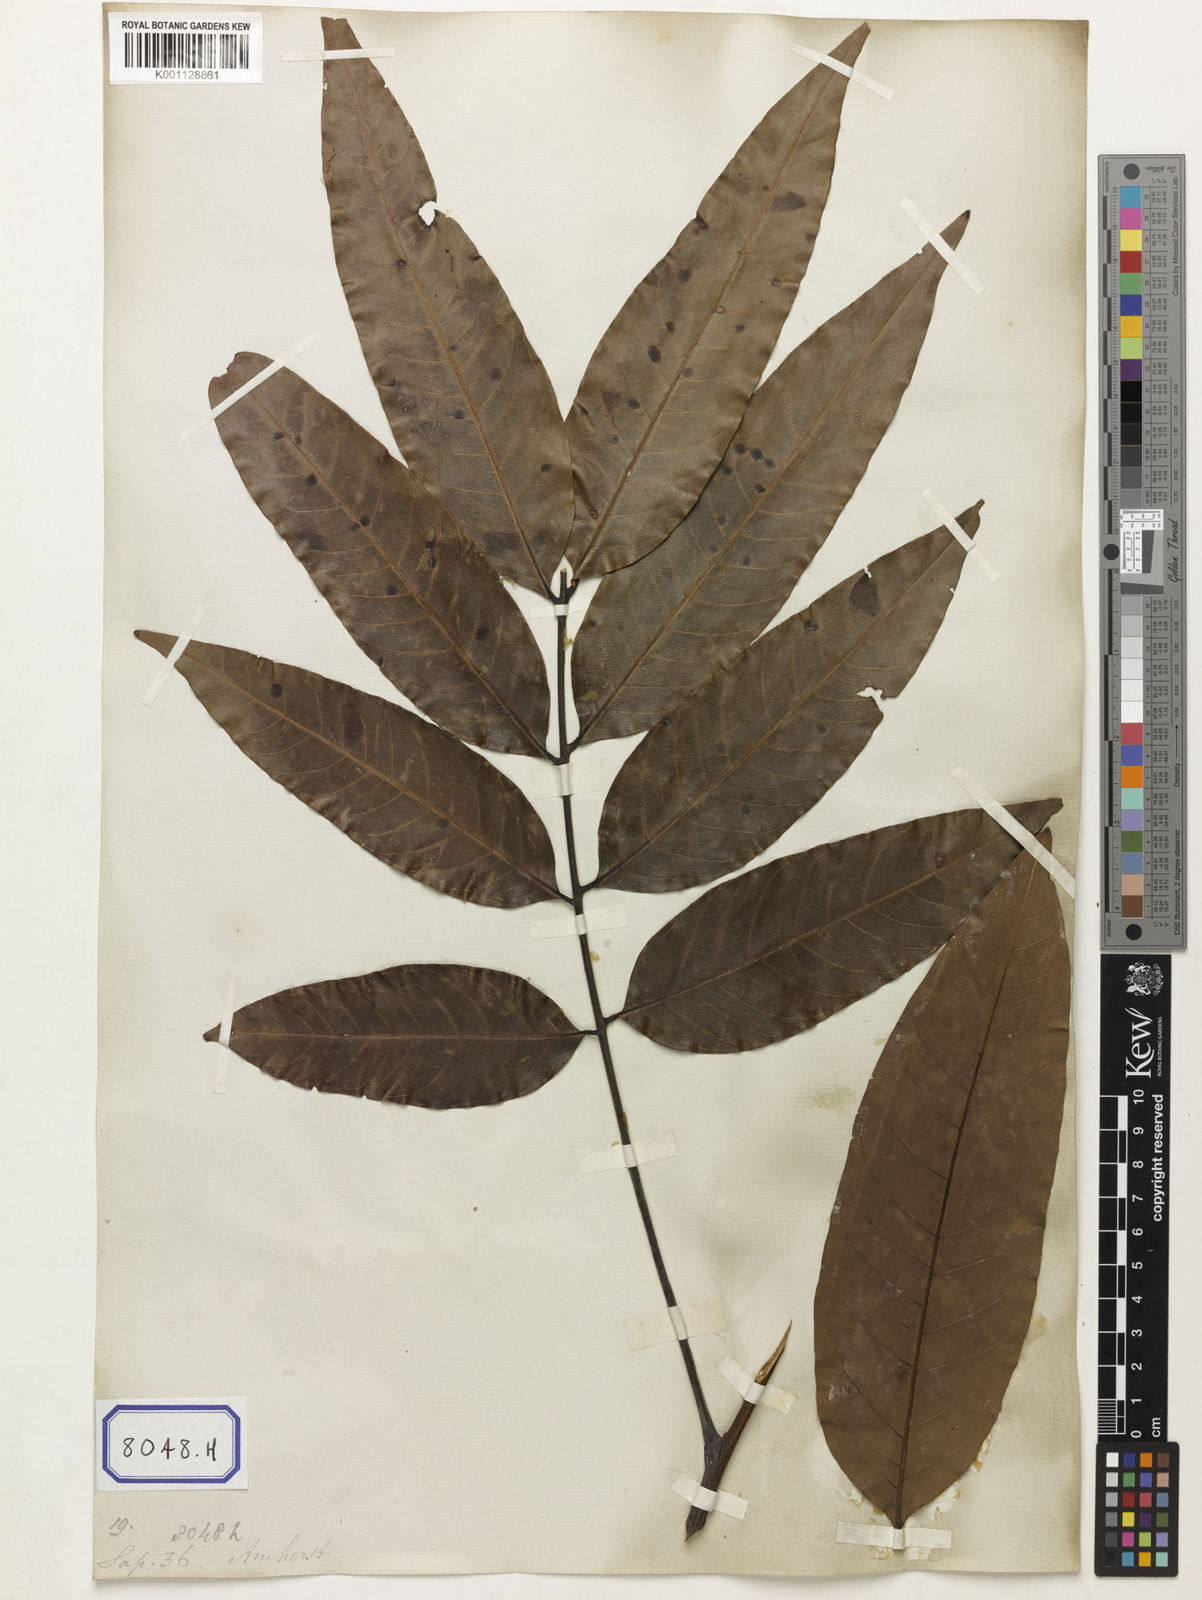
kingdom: Animalia
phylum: Arthropoda
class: Insecta
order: Coleoptera
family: Scarabaeidae
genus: Euphoria
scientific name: Euphoria
